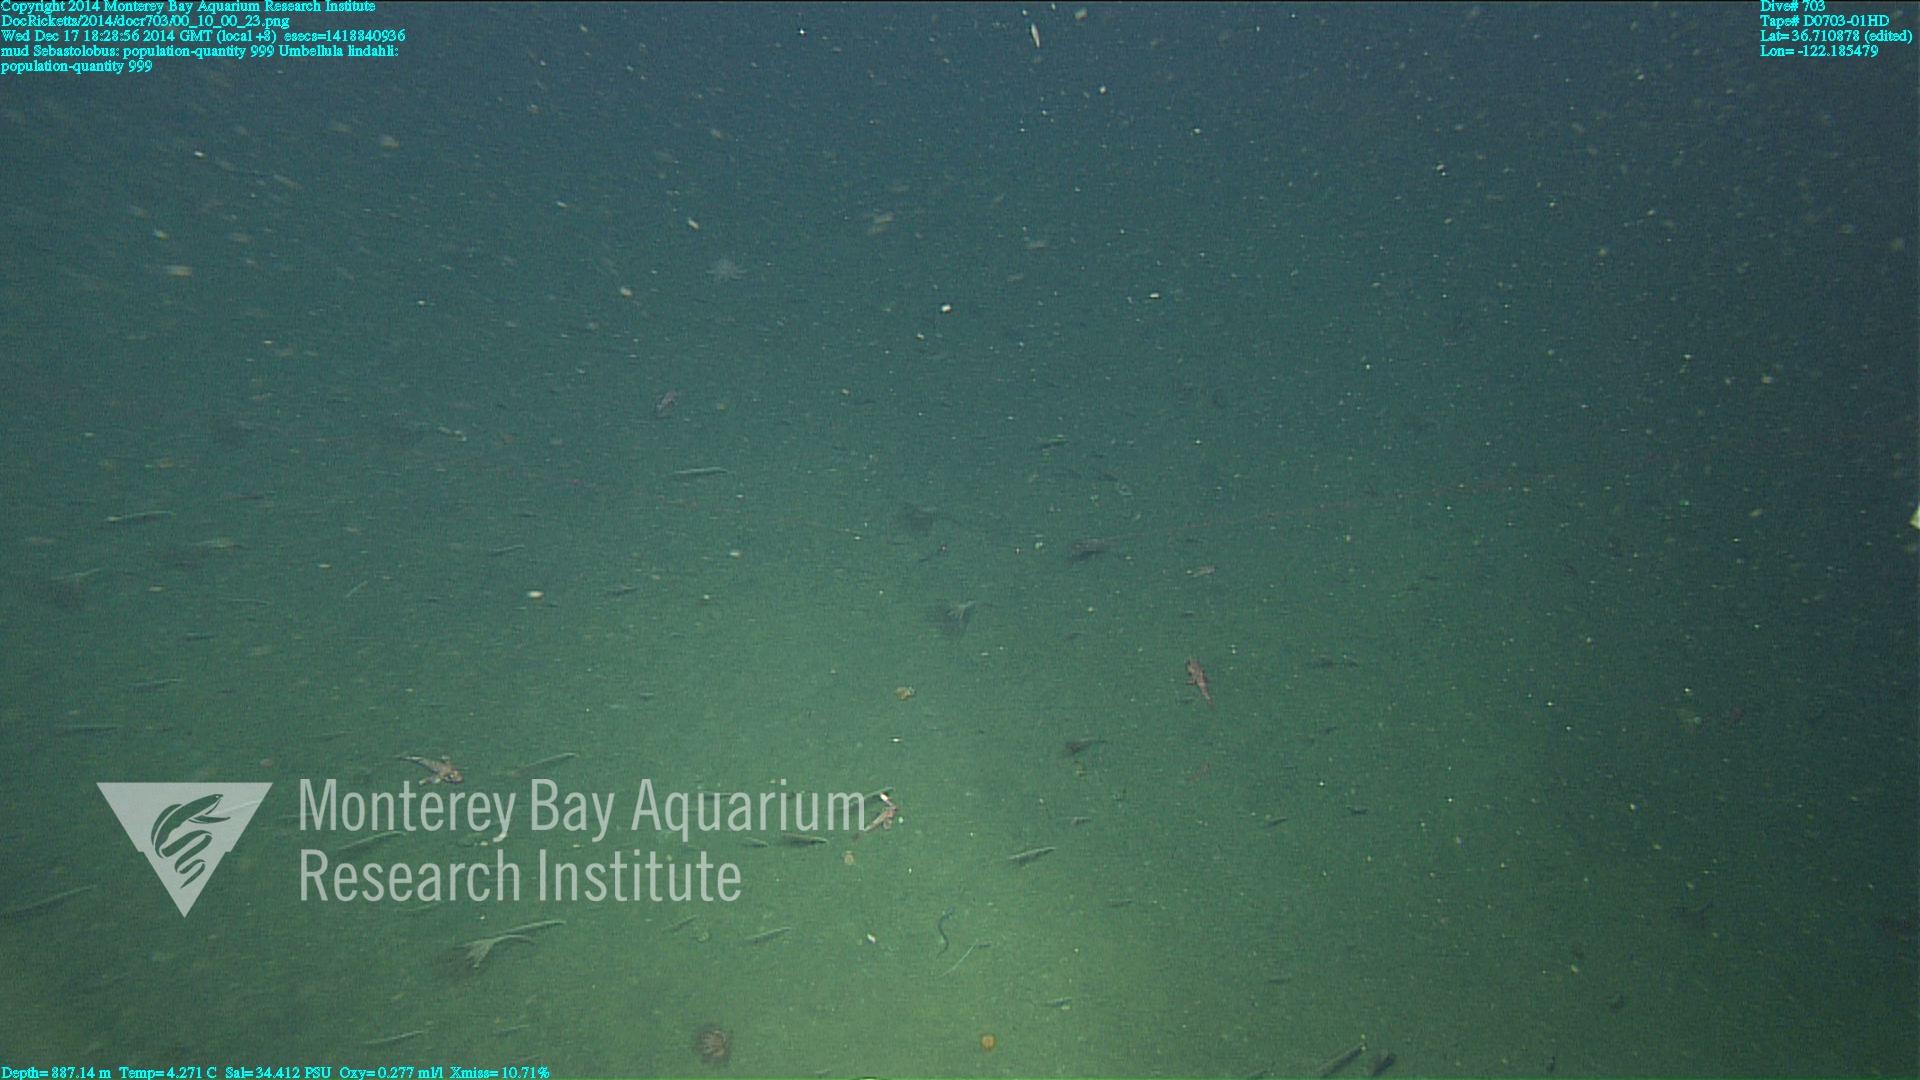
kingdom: Animalia
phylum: Cnidaria
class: Anthozoa
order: Scleralcyonacea
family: Umbellulidae
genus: Umbellula
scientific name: Umbellula lindahli
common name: Lindahl's droopy sea pen
